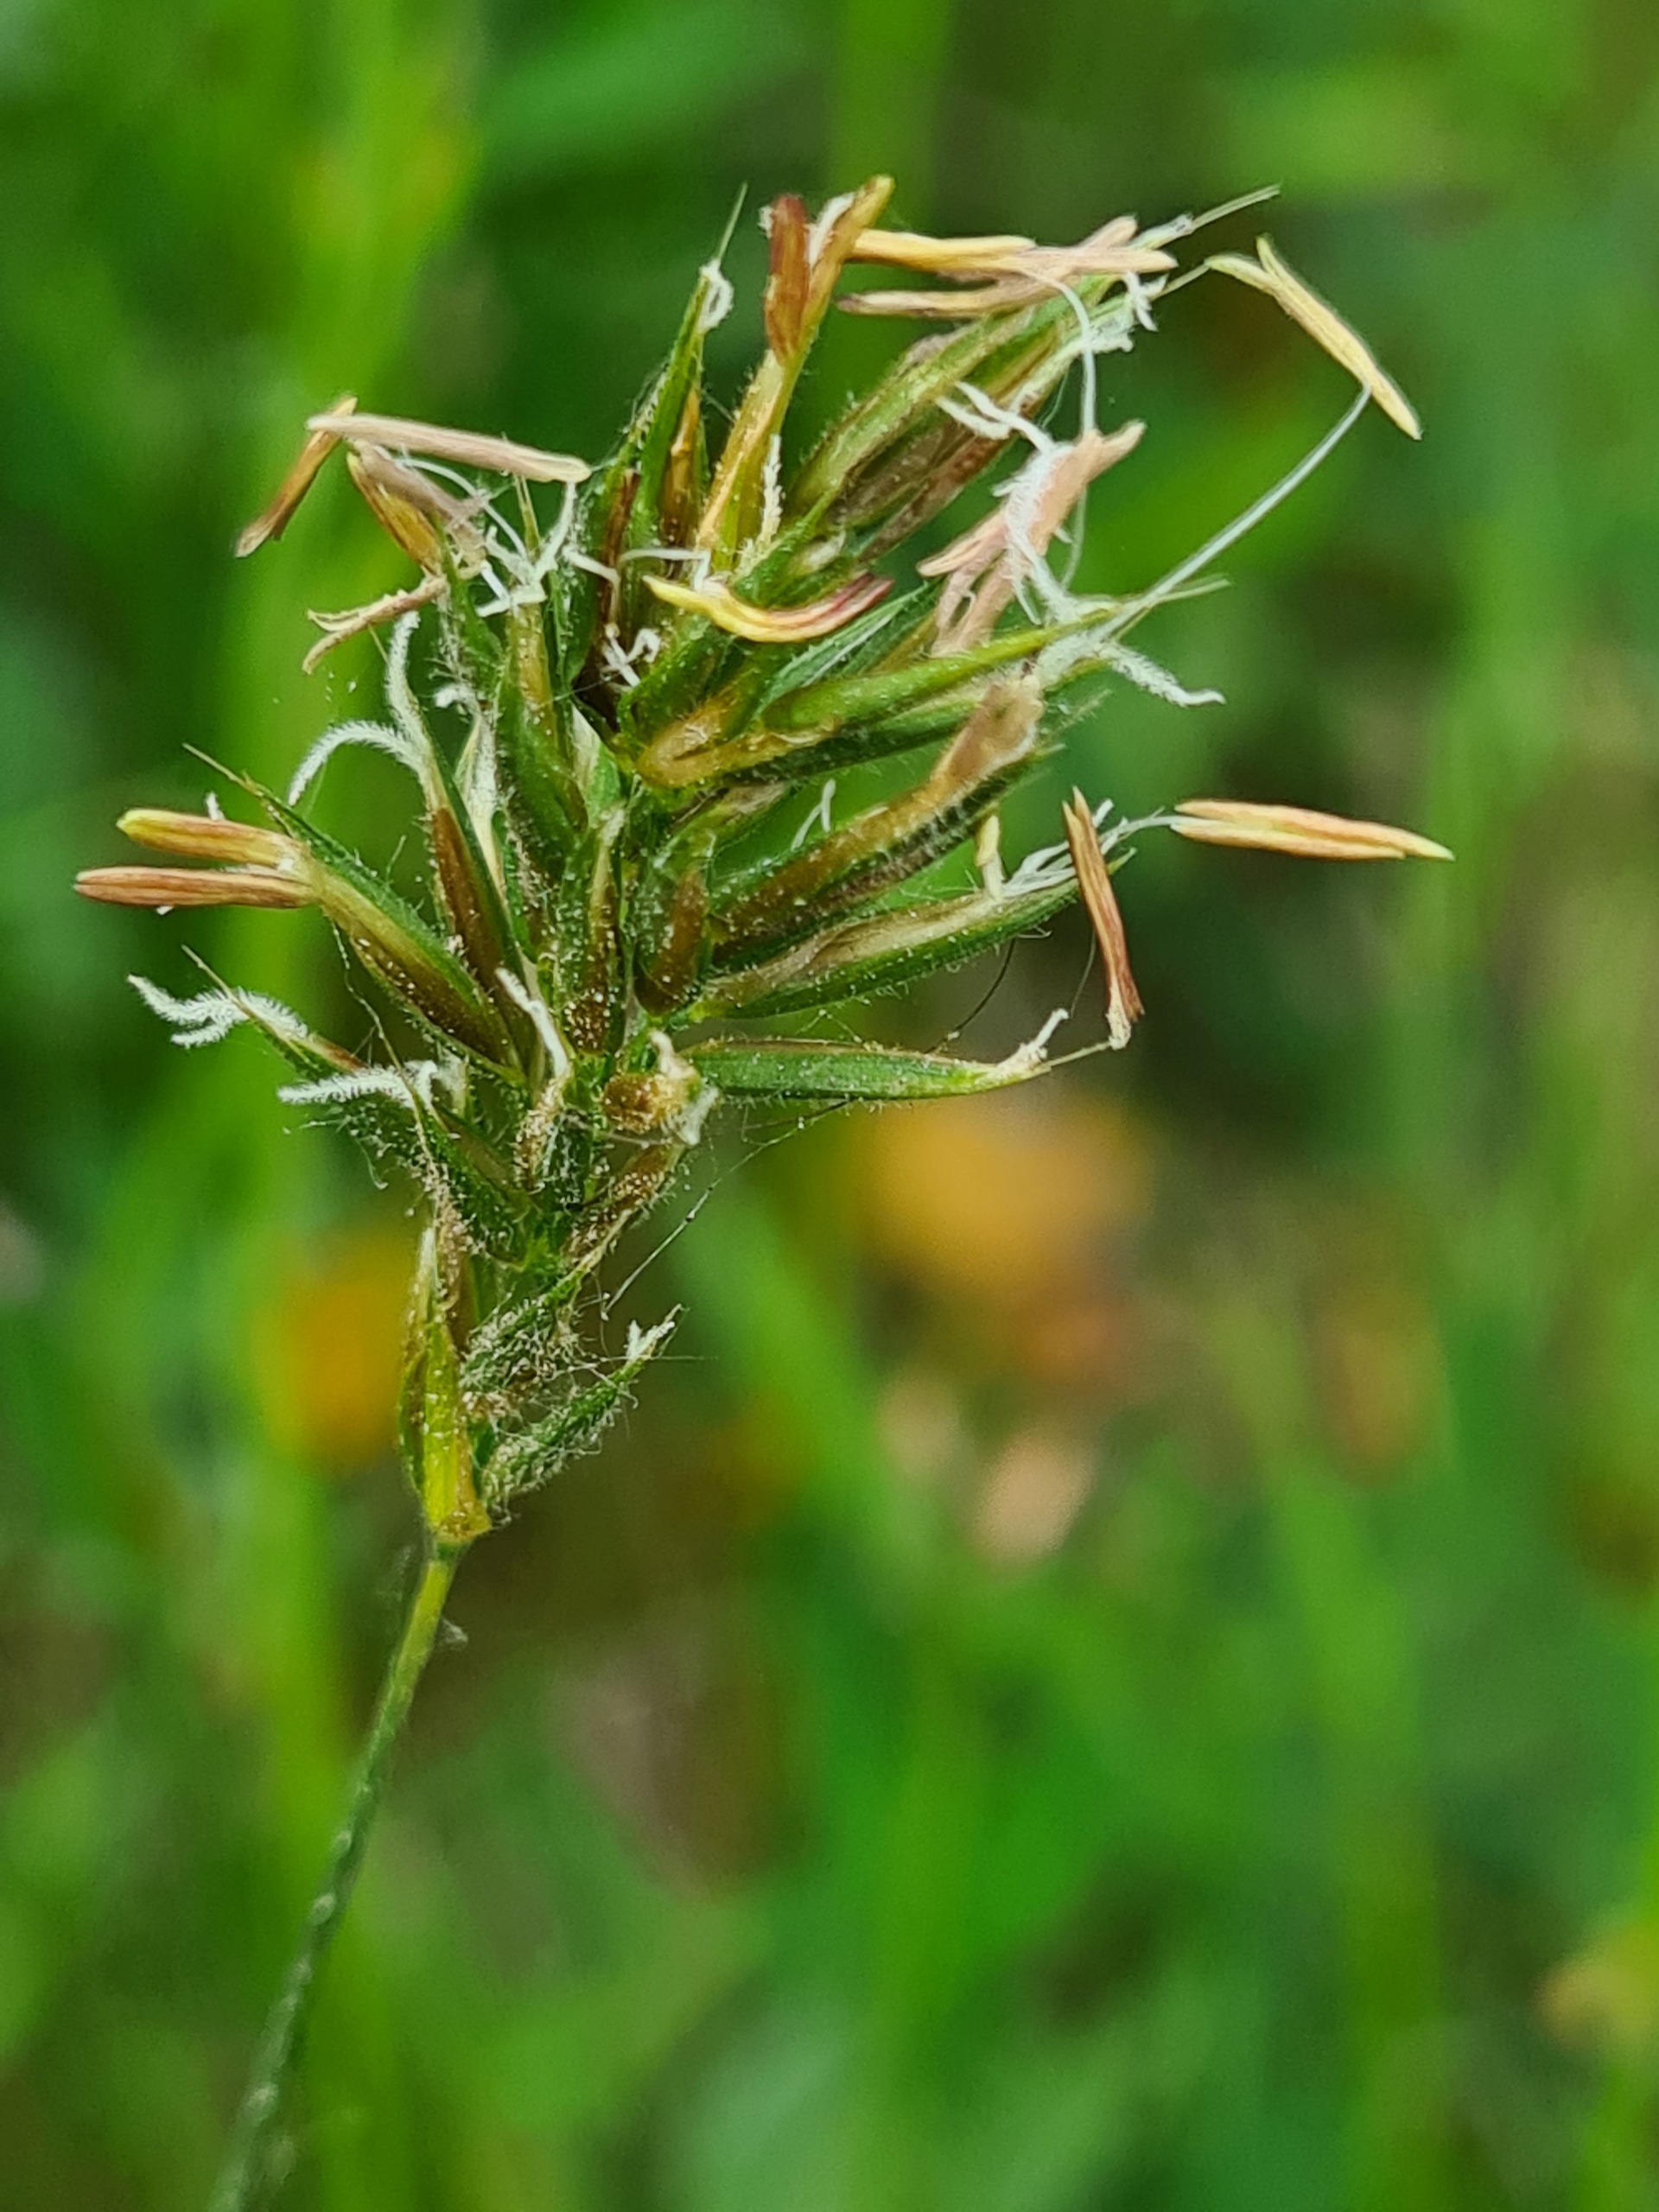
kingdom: Plantae
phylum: Tracheophyta
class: Liliopsida
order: Poales
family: Poaceae
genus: Anthoxanthum
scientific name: Anthoxanthum odoratum
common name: Vellugtende gulaks
